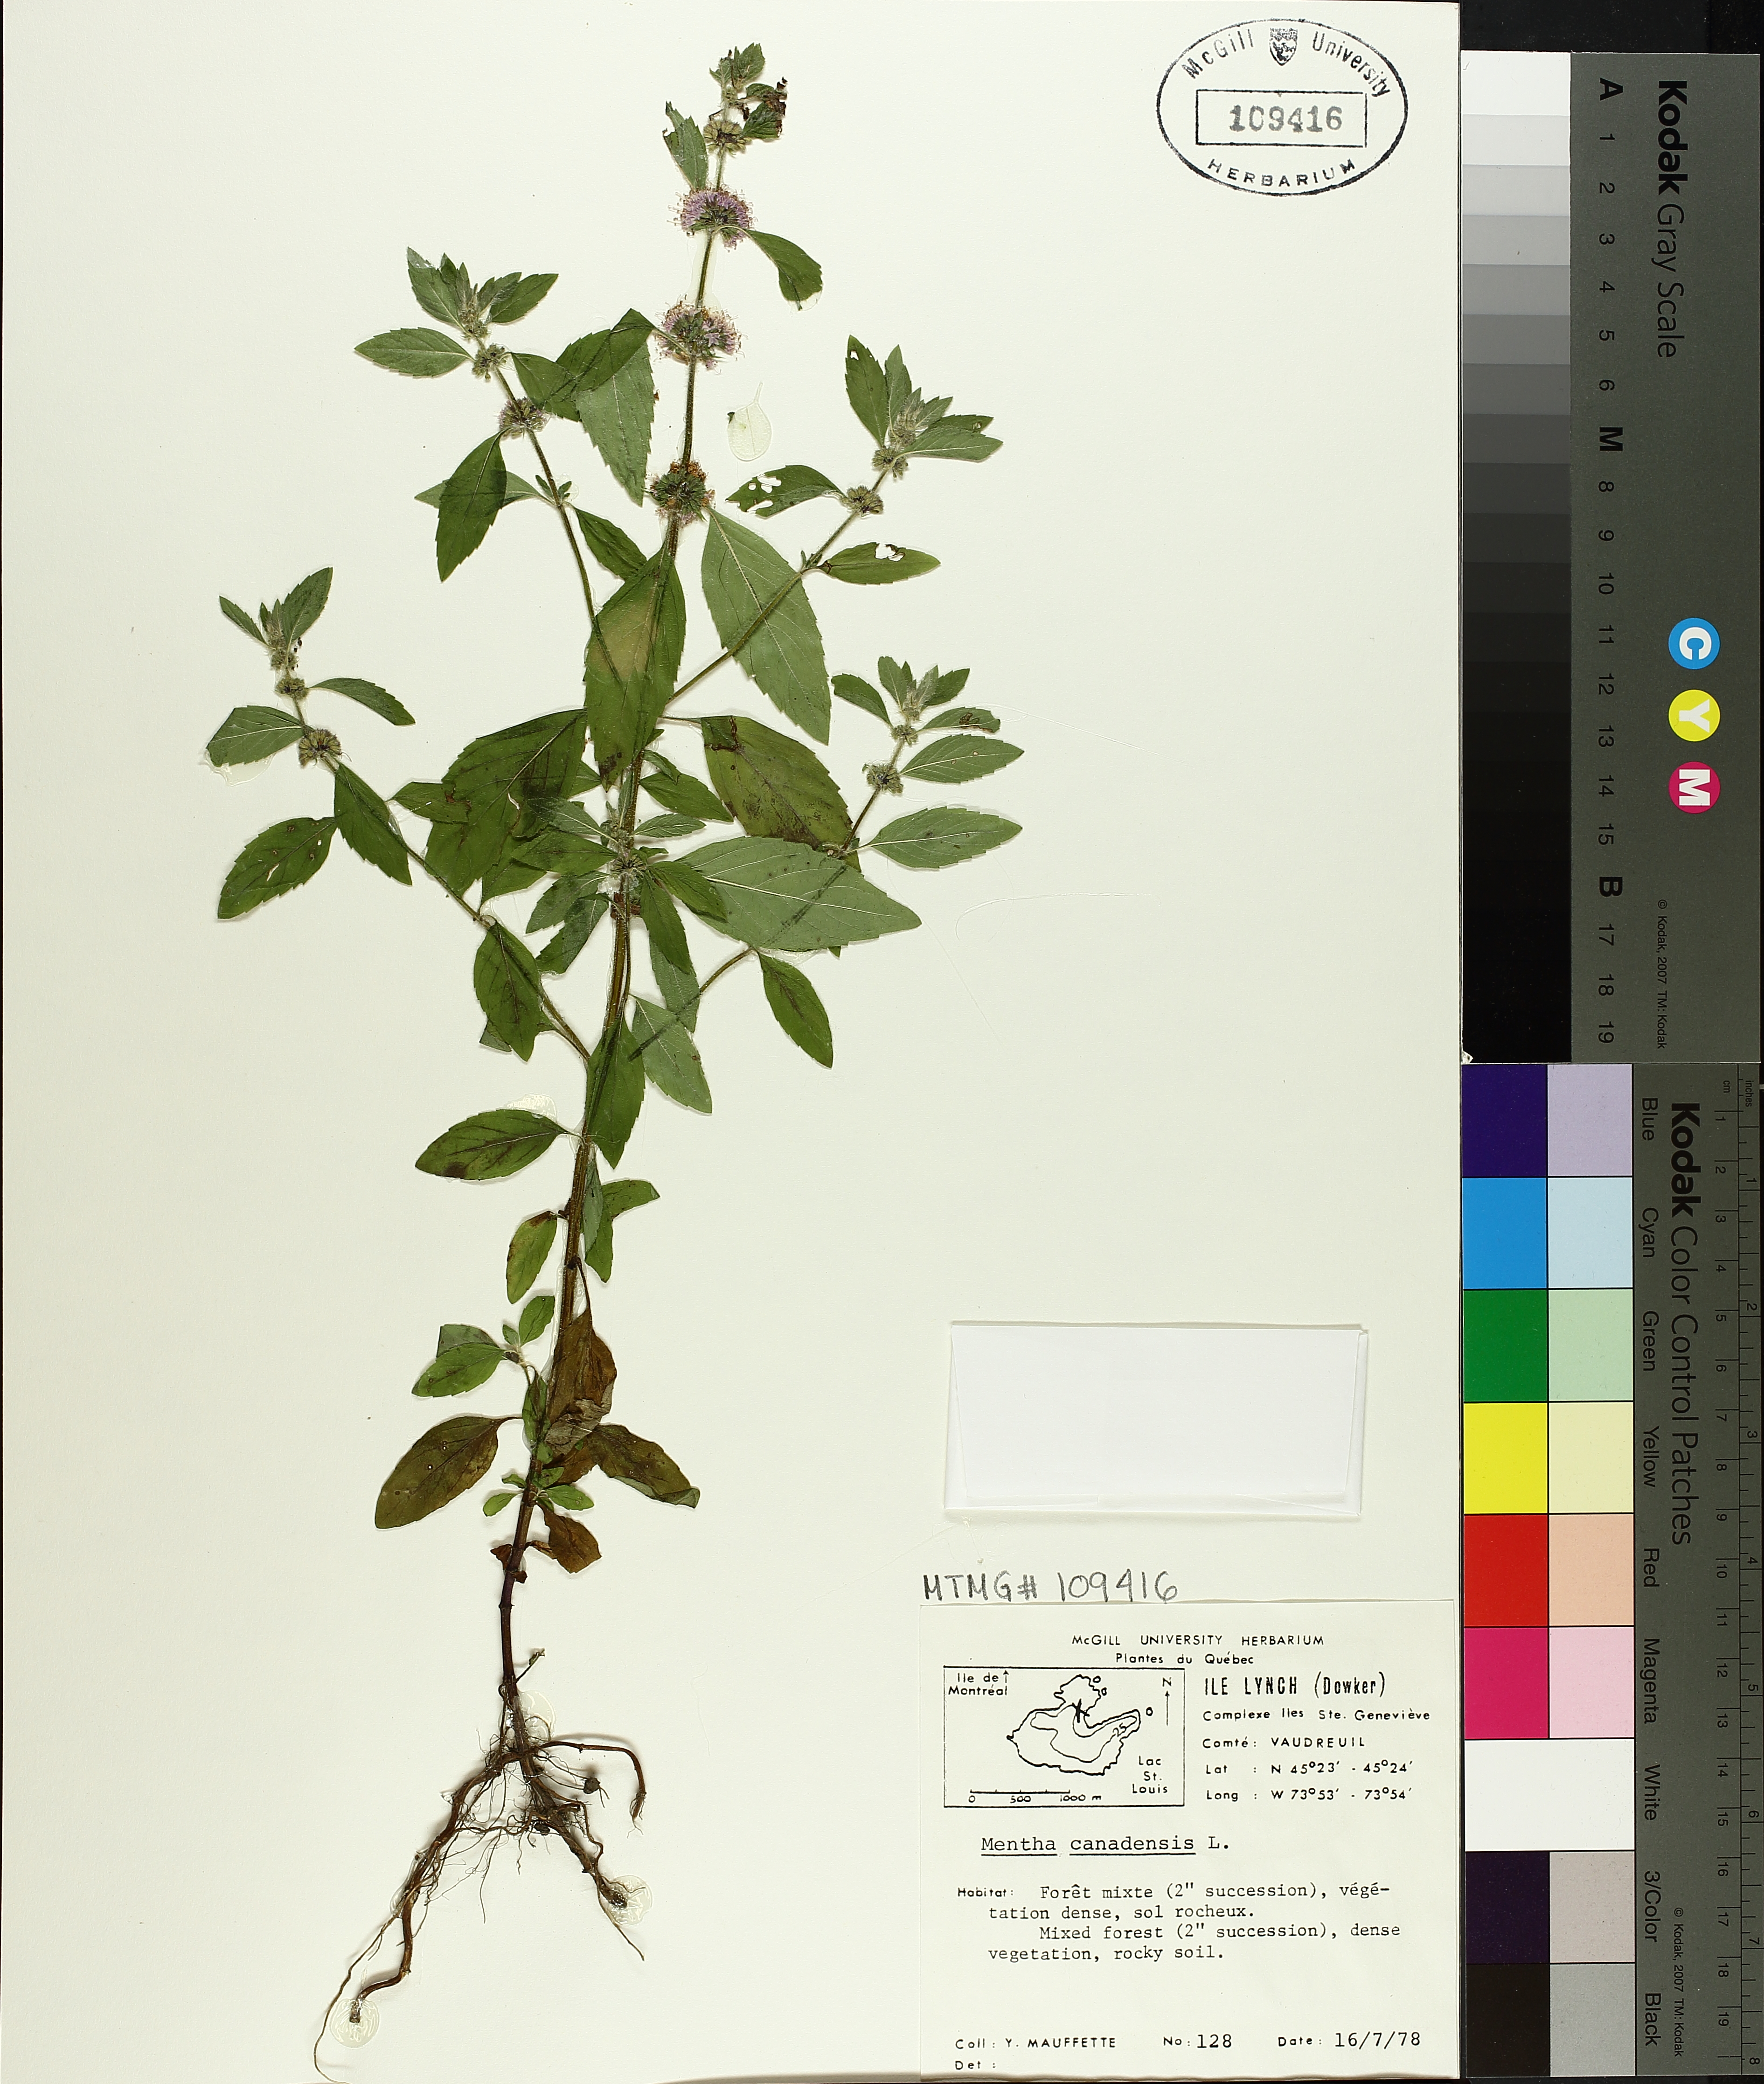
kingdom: Plantae
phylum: Tracheophyta
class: Magnoliopsida
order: Lamiales
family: Lamiaceae
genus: Mentha
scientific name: Mentha canadensis
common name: American corn mint
